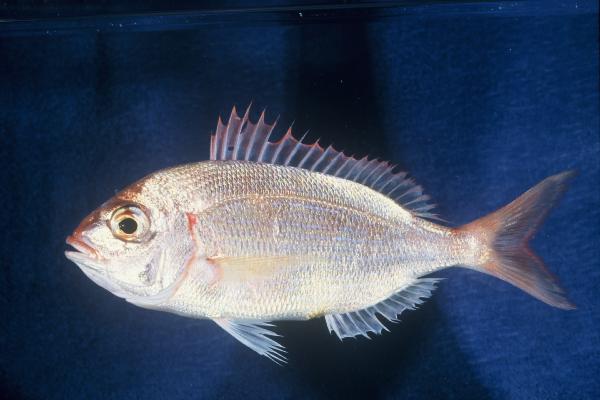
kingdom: Animalia
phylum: Chordata
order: Perciformes
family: Sparidae
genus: Pagellus
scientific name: Pagellus natalensis
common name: Natal pandora
